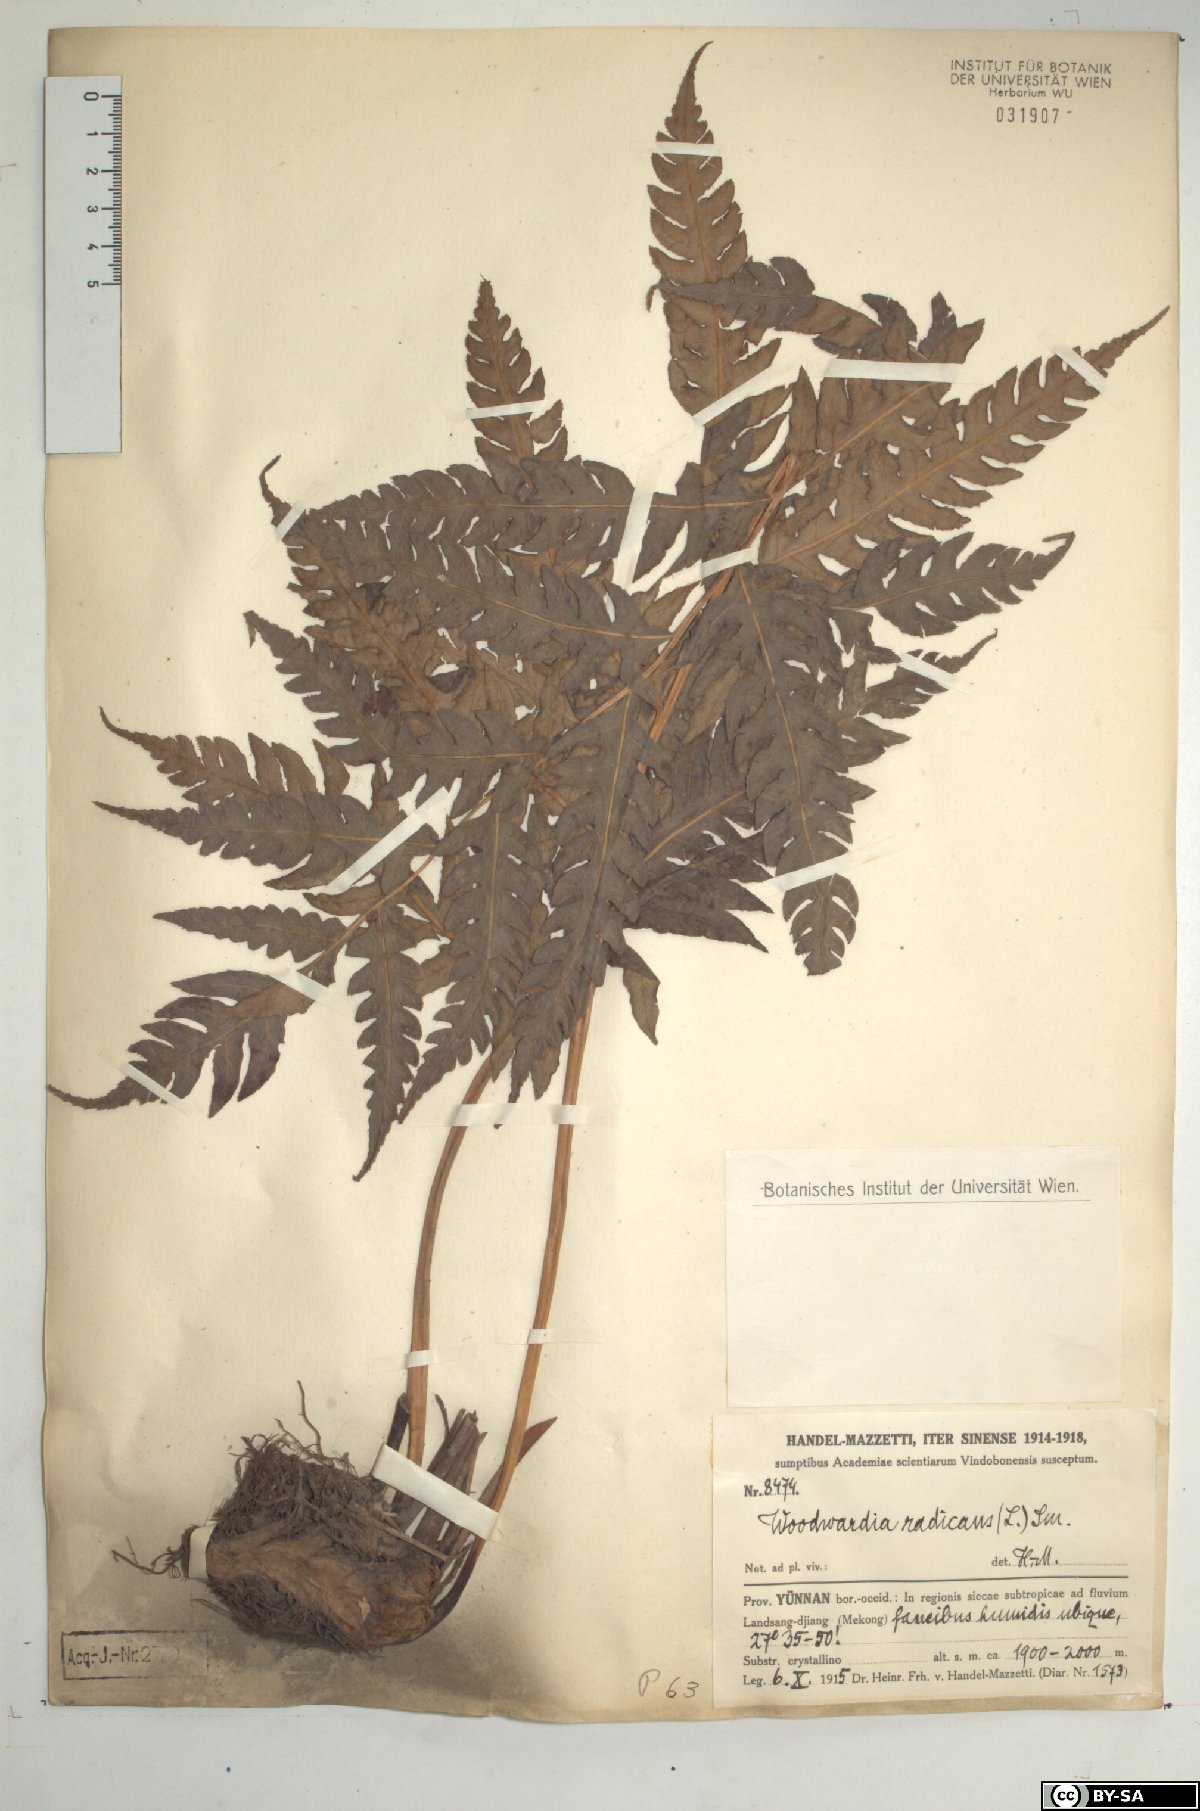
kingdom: Plantae
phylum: Tracheophyta
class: Polypodiopsida
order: Polypodiales
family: Blechnaceae
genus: Woodwardia
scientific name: Woodwardia radicans
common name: Rooting chainfern
